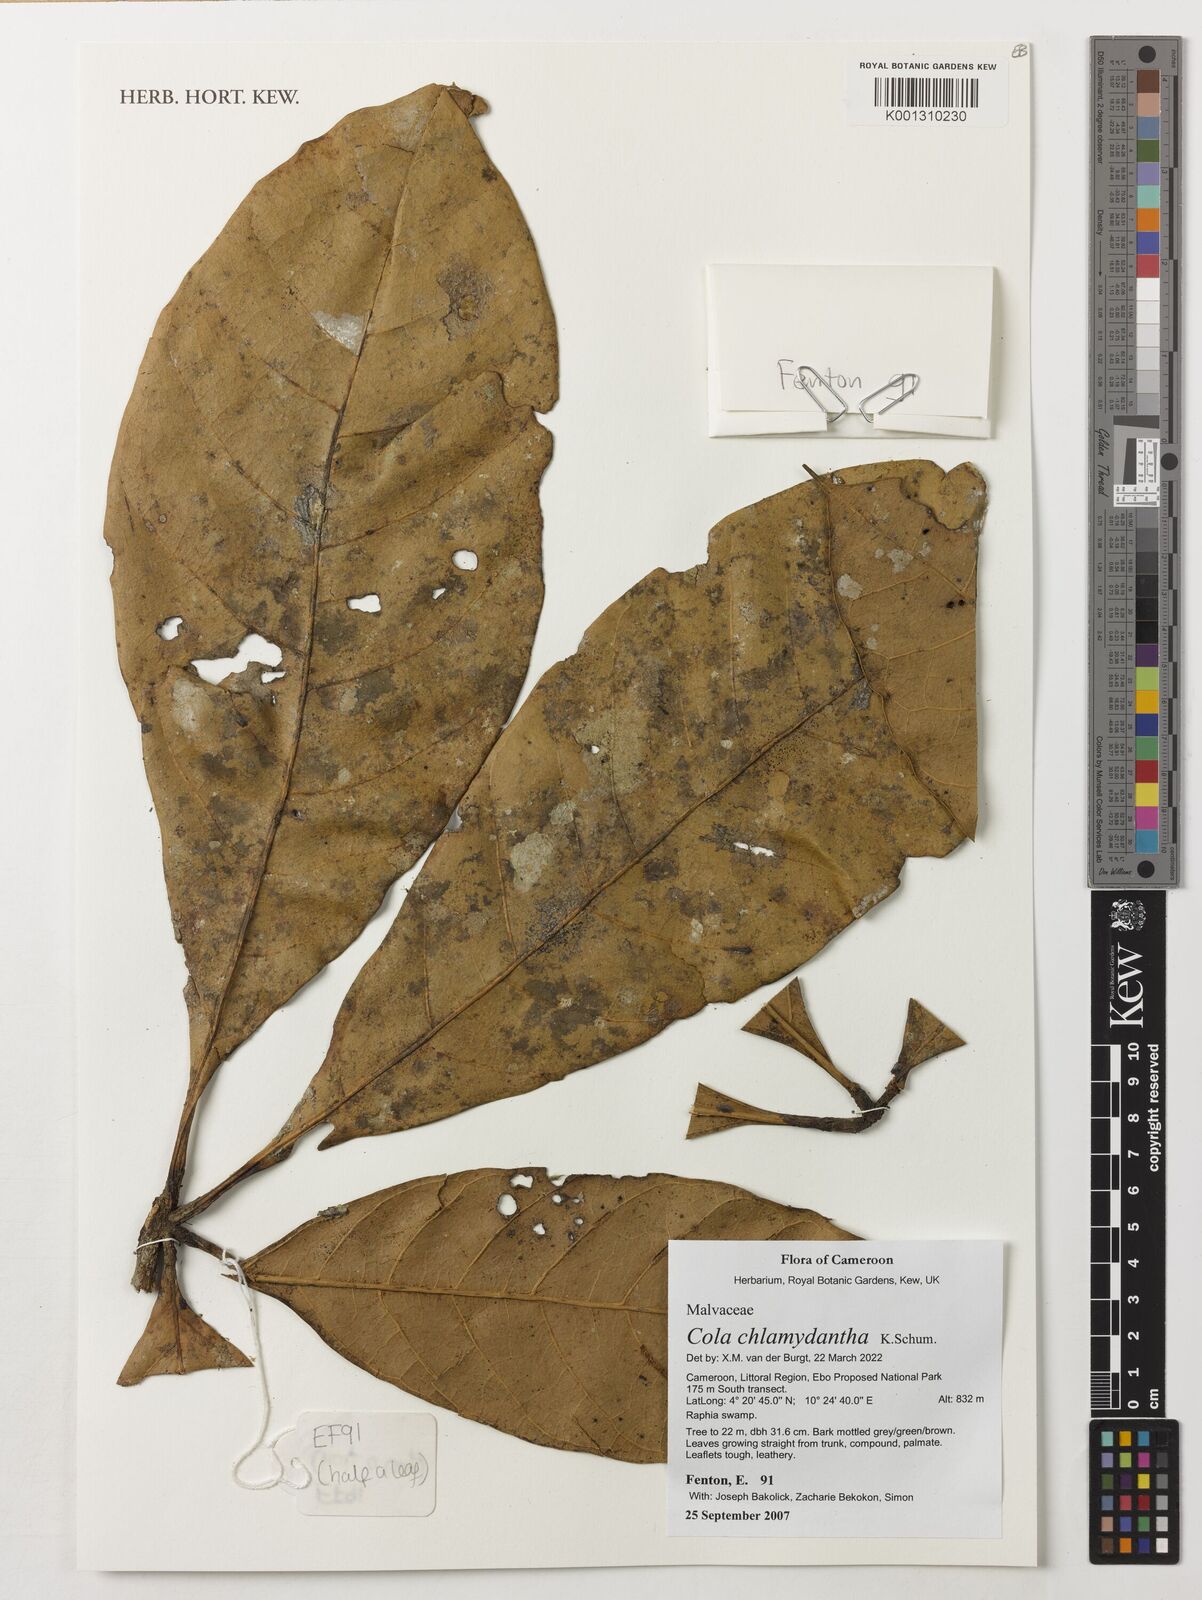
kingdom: Plantae
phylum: Tracheophyta
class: Magnoliopsida
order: Malvales
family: Malvaceae
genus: Cola
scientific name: Cola chlamydantha
